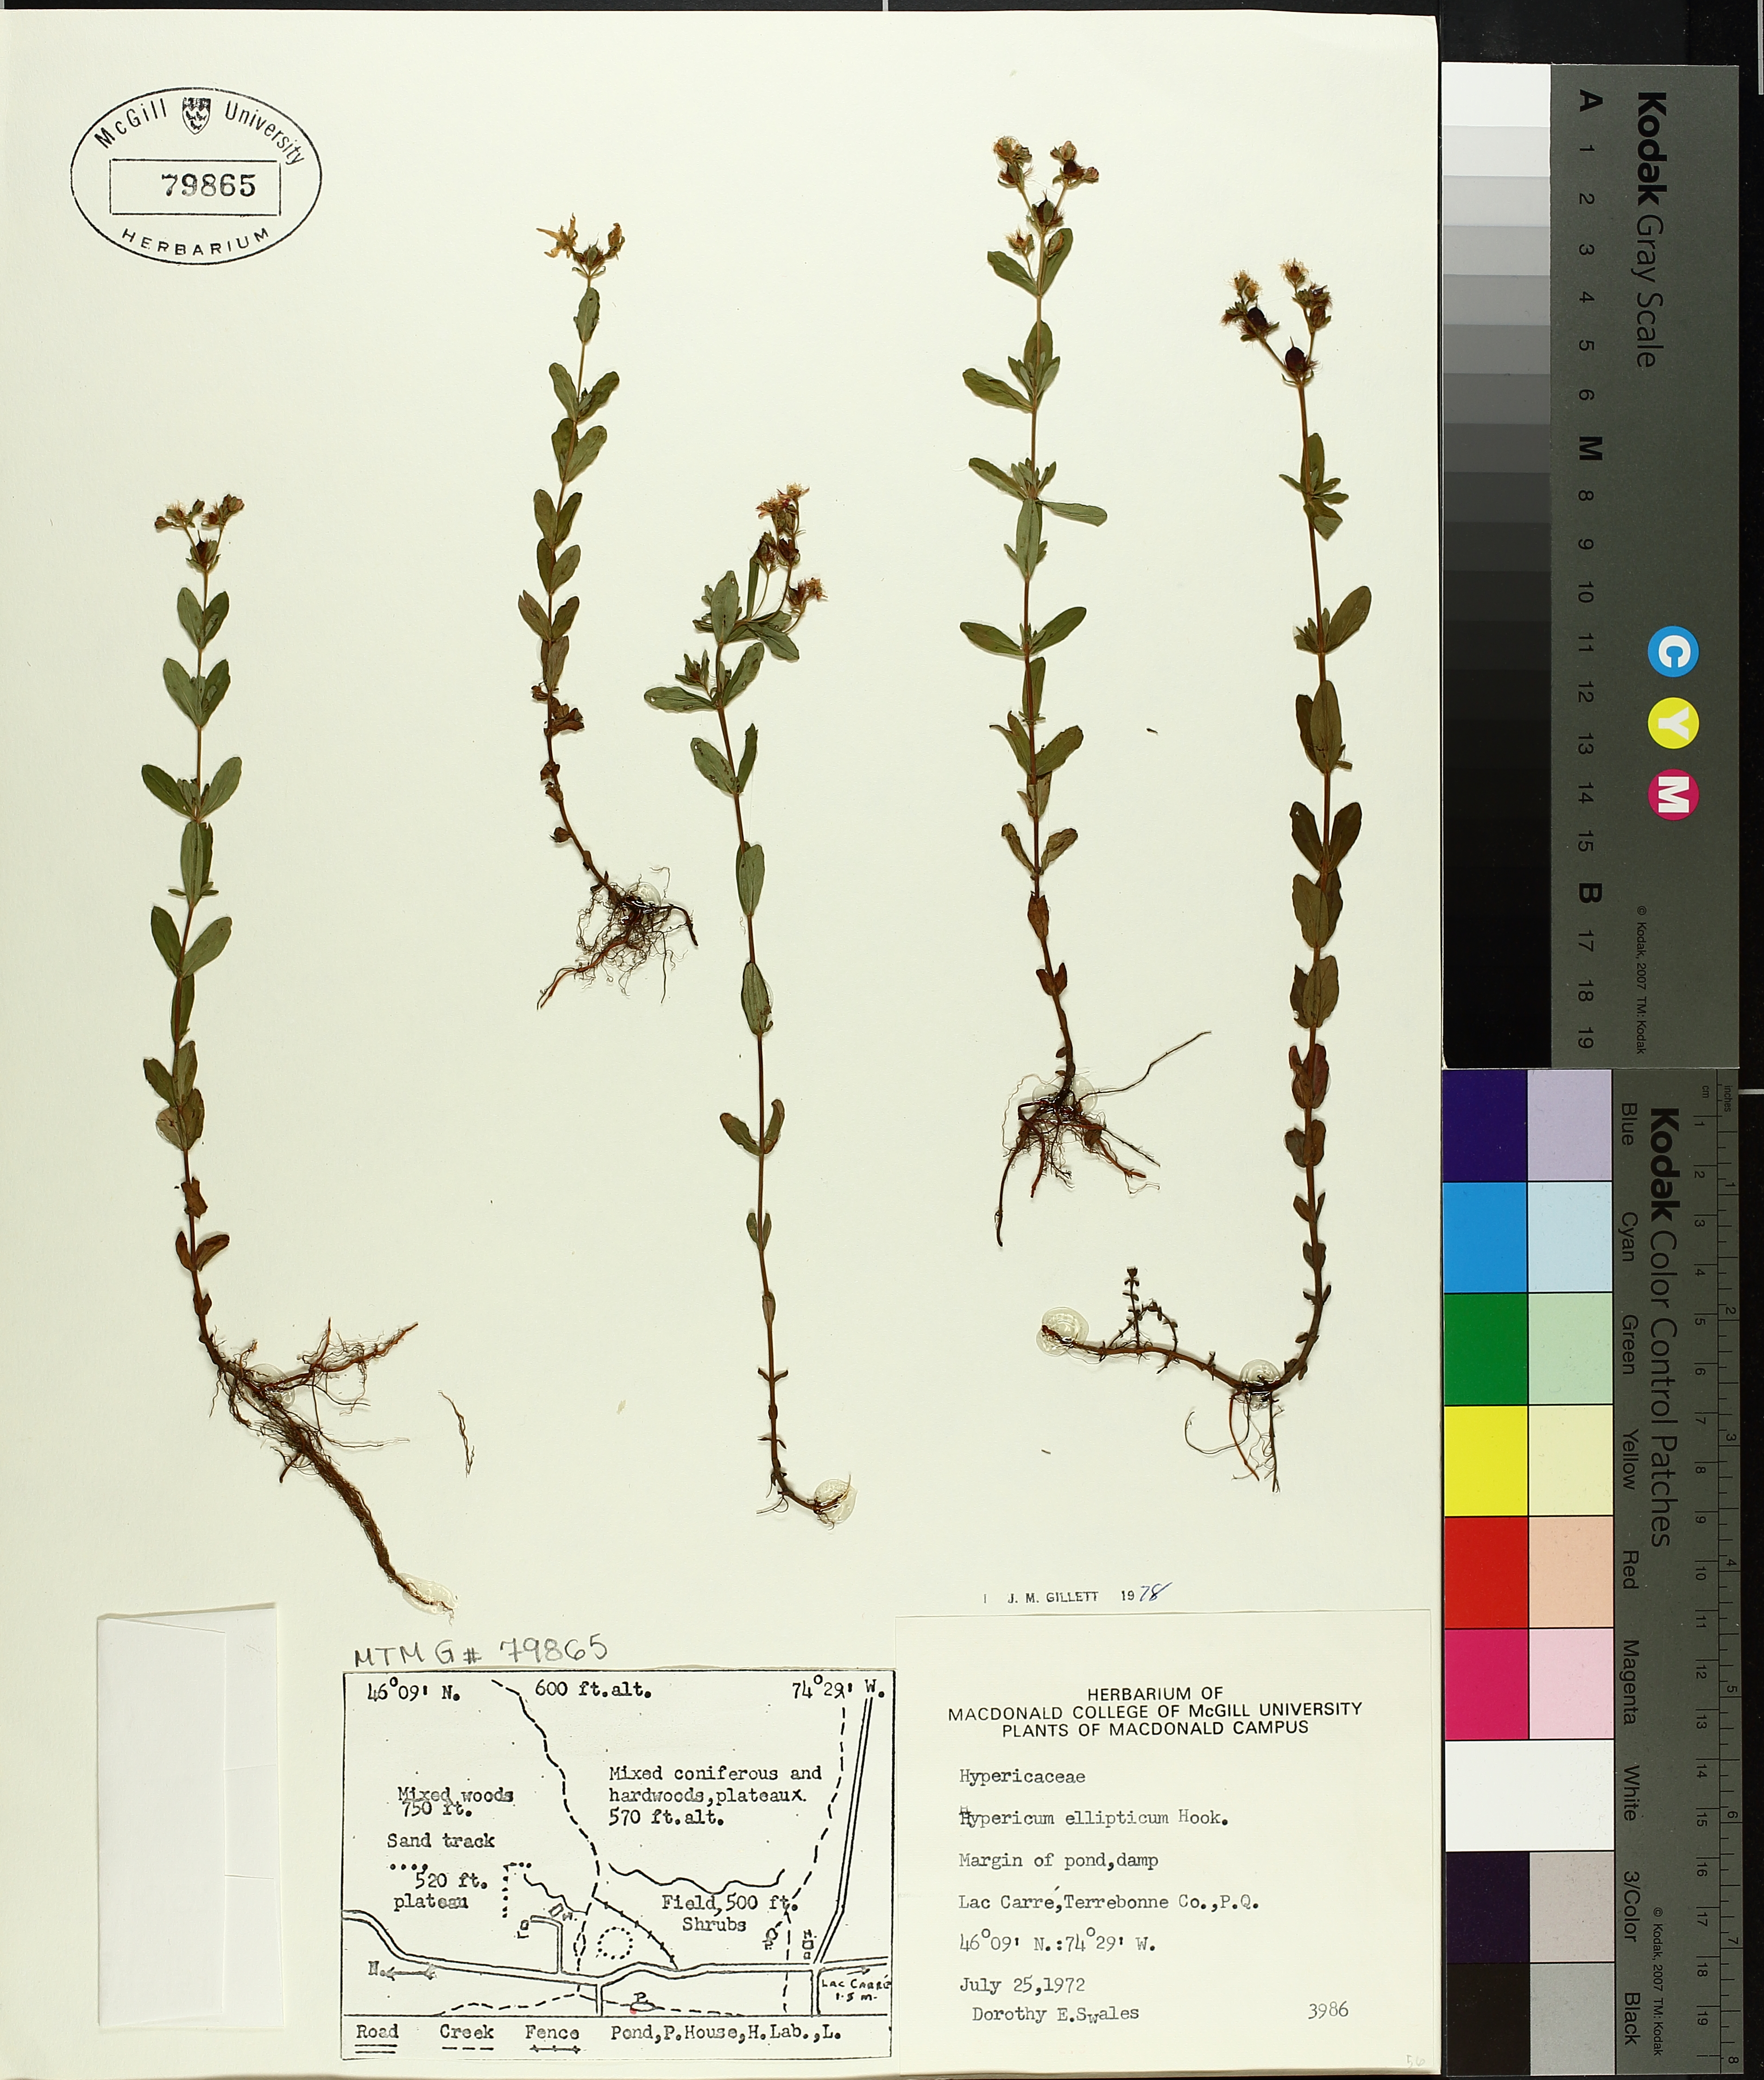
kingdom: Plantae
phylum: Tracheophyta
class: Magnoliopsida
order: Malpighiales
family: Hypericaceae
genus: Hypericum
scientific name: Hypericum ellipticum
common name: Elliptic st. john's-wort
